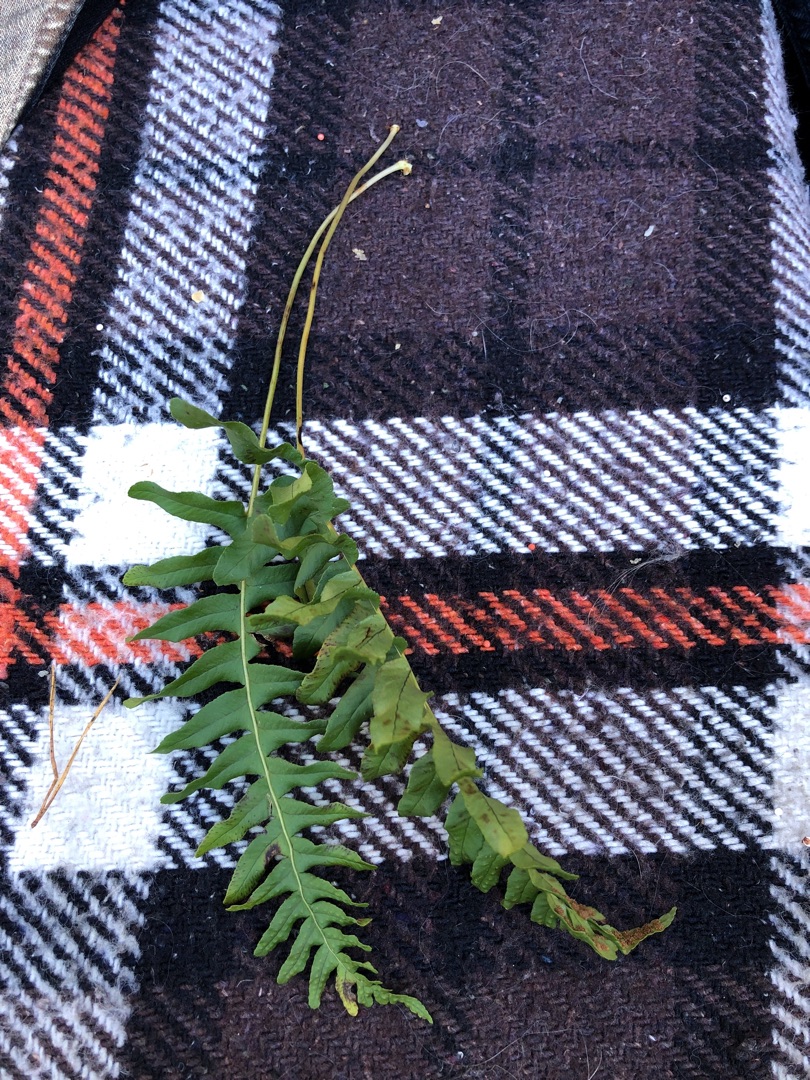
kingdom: Plantae
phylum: Tracheophyta
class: Polypodiopsida
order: Polypodiales
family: Polypodiaceae
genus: Polypodium
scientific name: Polypodium vulgare
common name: Almindelig engelsød
